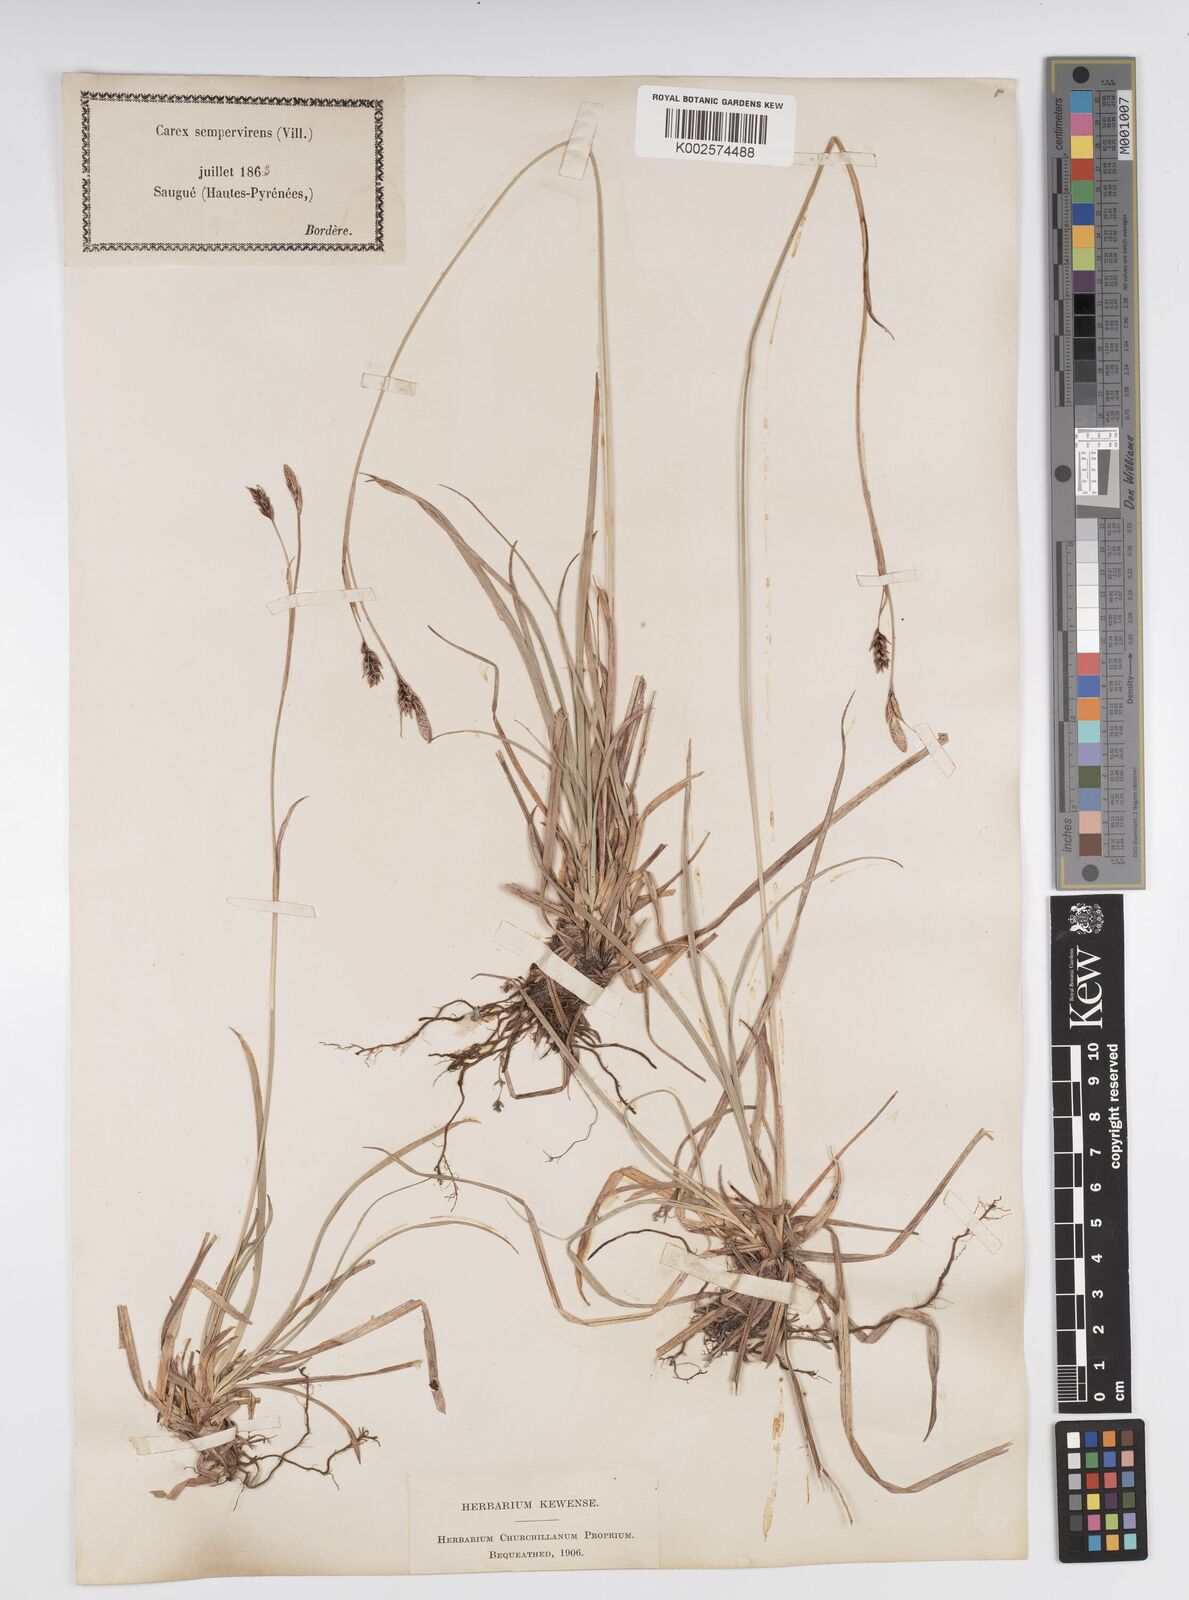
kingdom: Plantae
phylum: Tracheophyta
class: Liliopsida
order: Poales
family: Cyperaceae
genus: Carex
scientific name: Carex sempervirens
